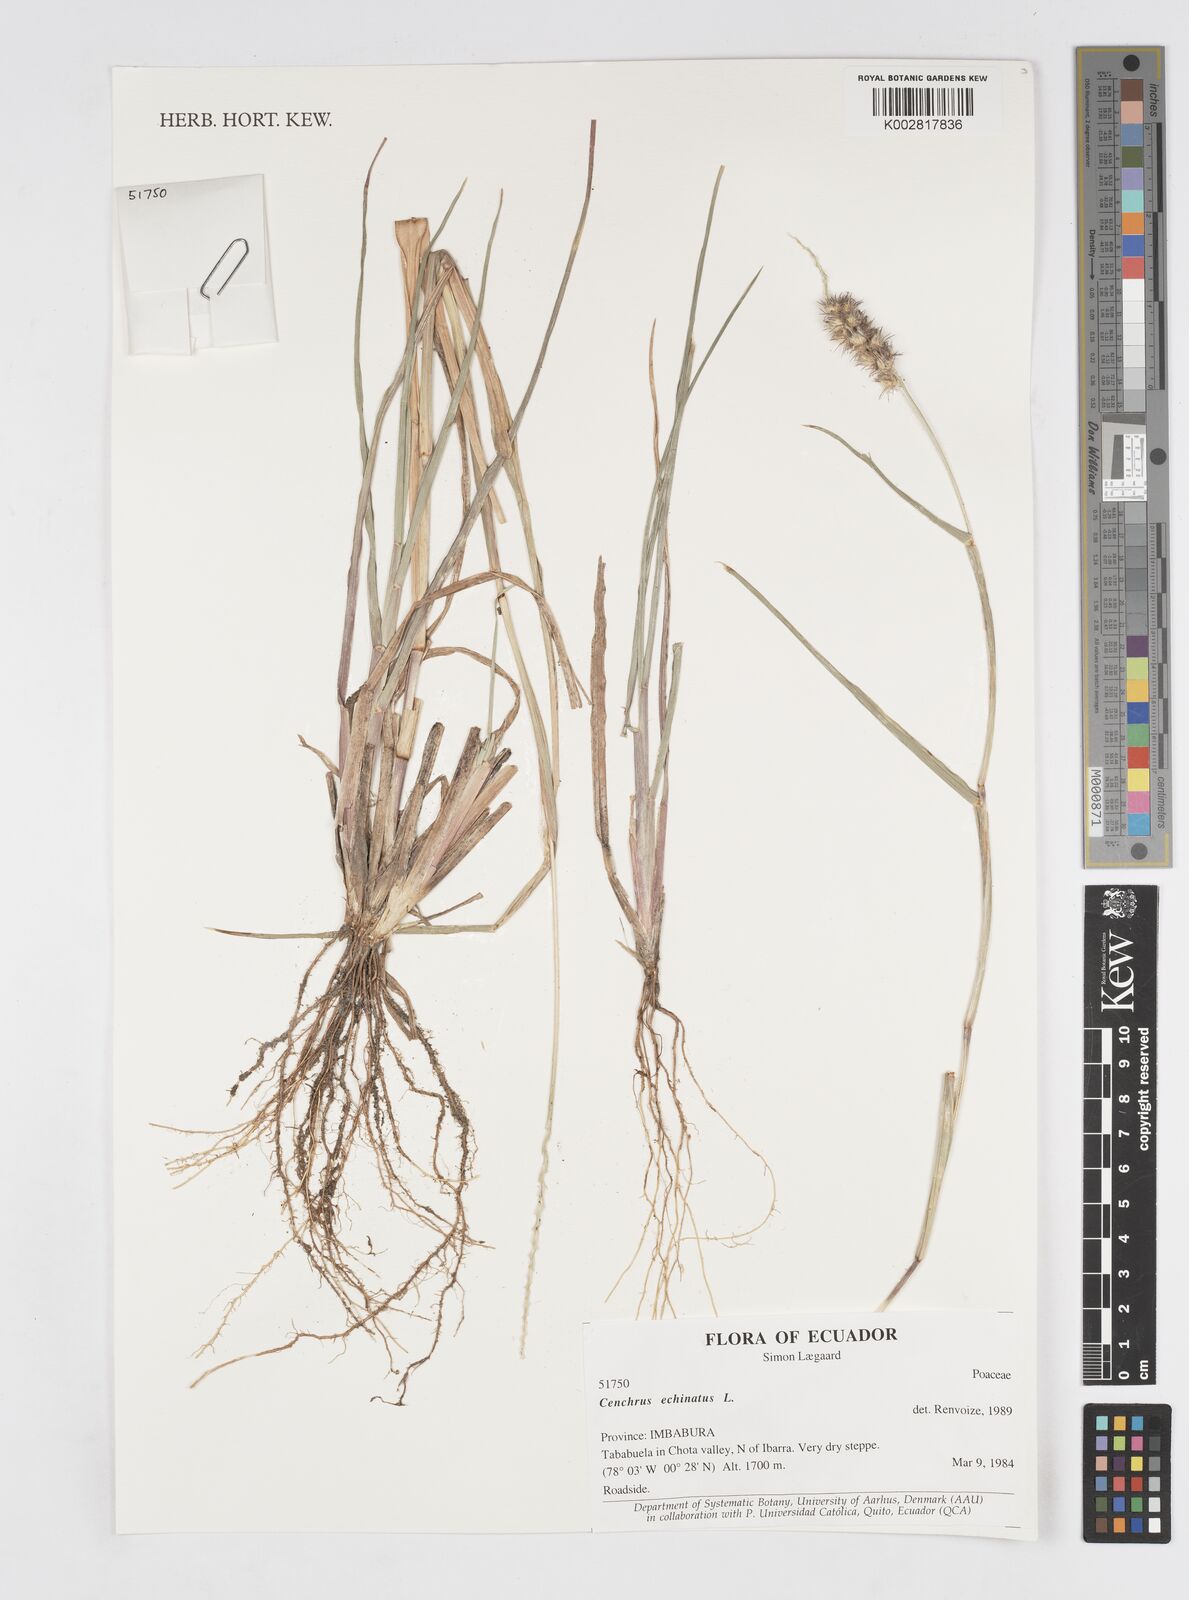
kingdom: Plantae
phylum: Tracheophyta
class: Liliopsida
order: Poales
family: Poaceae
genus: Cenchrus
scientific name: Cenchrus
